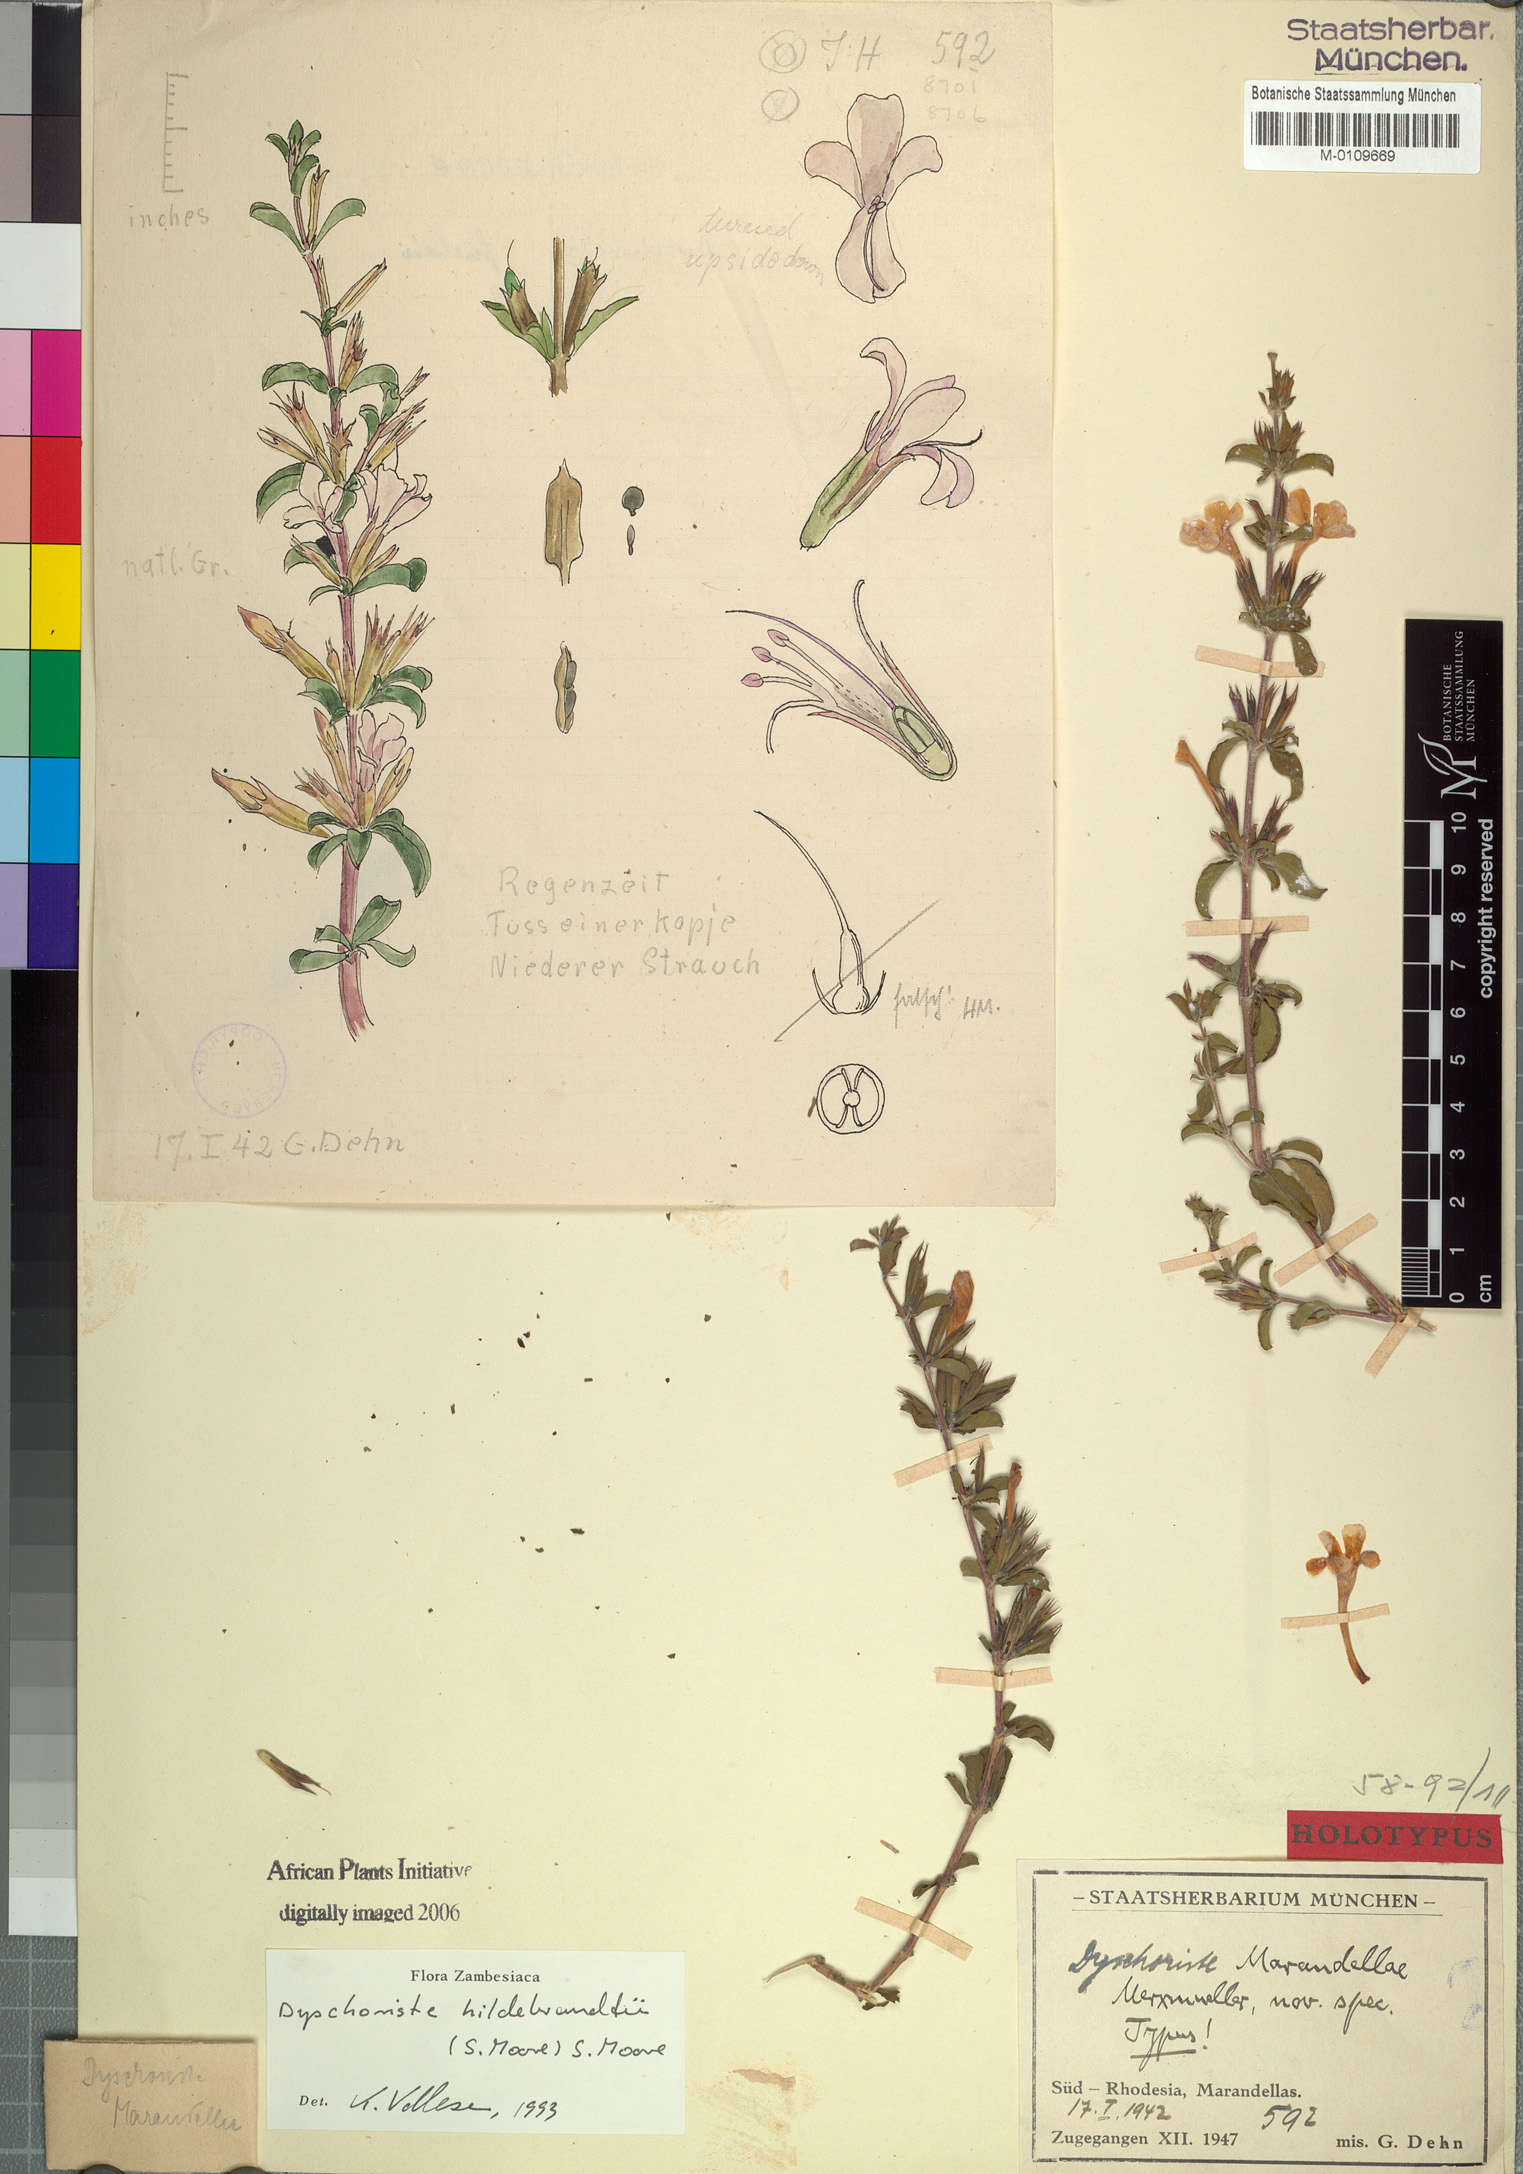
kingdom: Plantae
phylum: Tracheophyta
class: Magnoliopsida
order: Lamiales
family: Acanthaceae
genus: Dyschoriste
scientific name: Dyschoriste hildebrandtii
